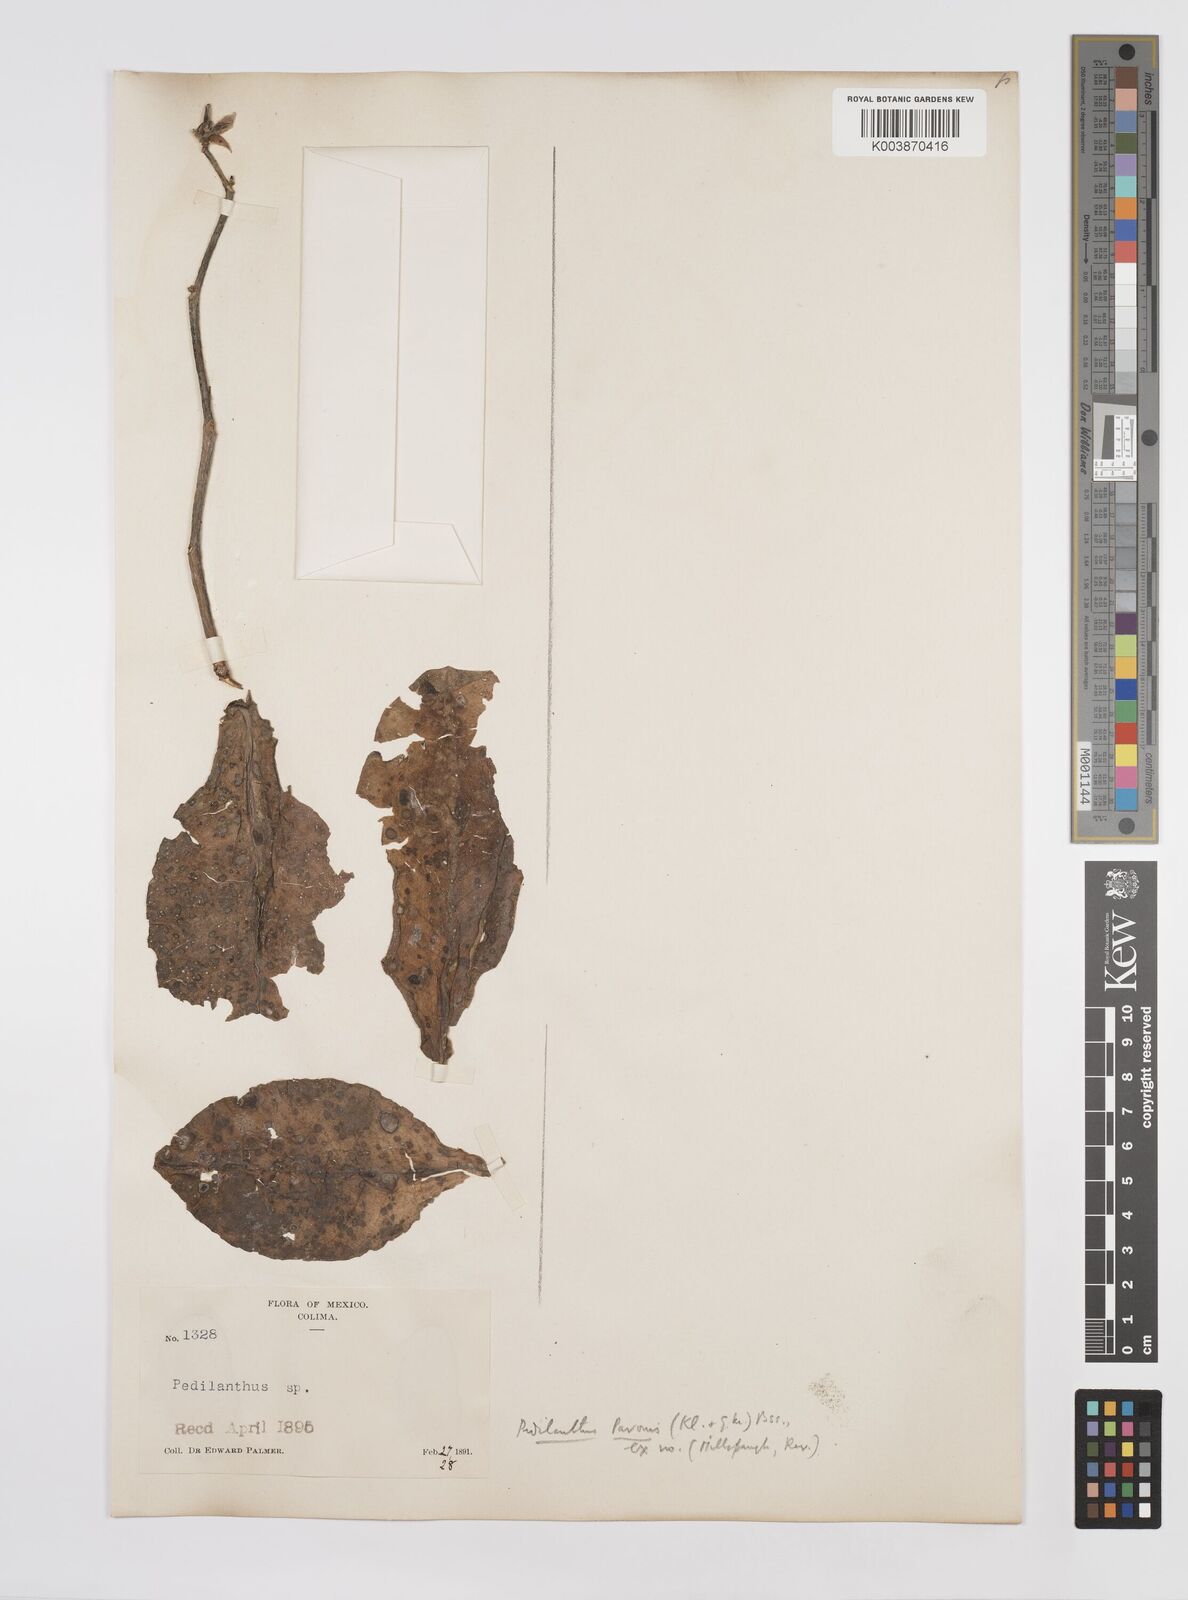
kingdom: Plantae
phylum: Tracheophyta
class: Magnoliopsida
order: Malpighiales
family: Euphorbiaceae
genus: Euphorbia
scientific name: Euphorbia bracteata
